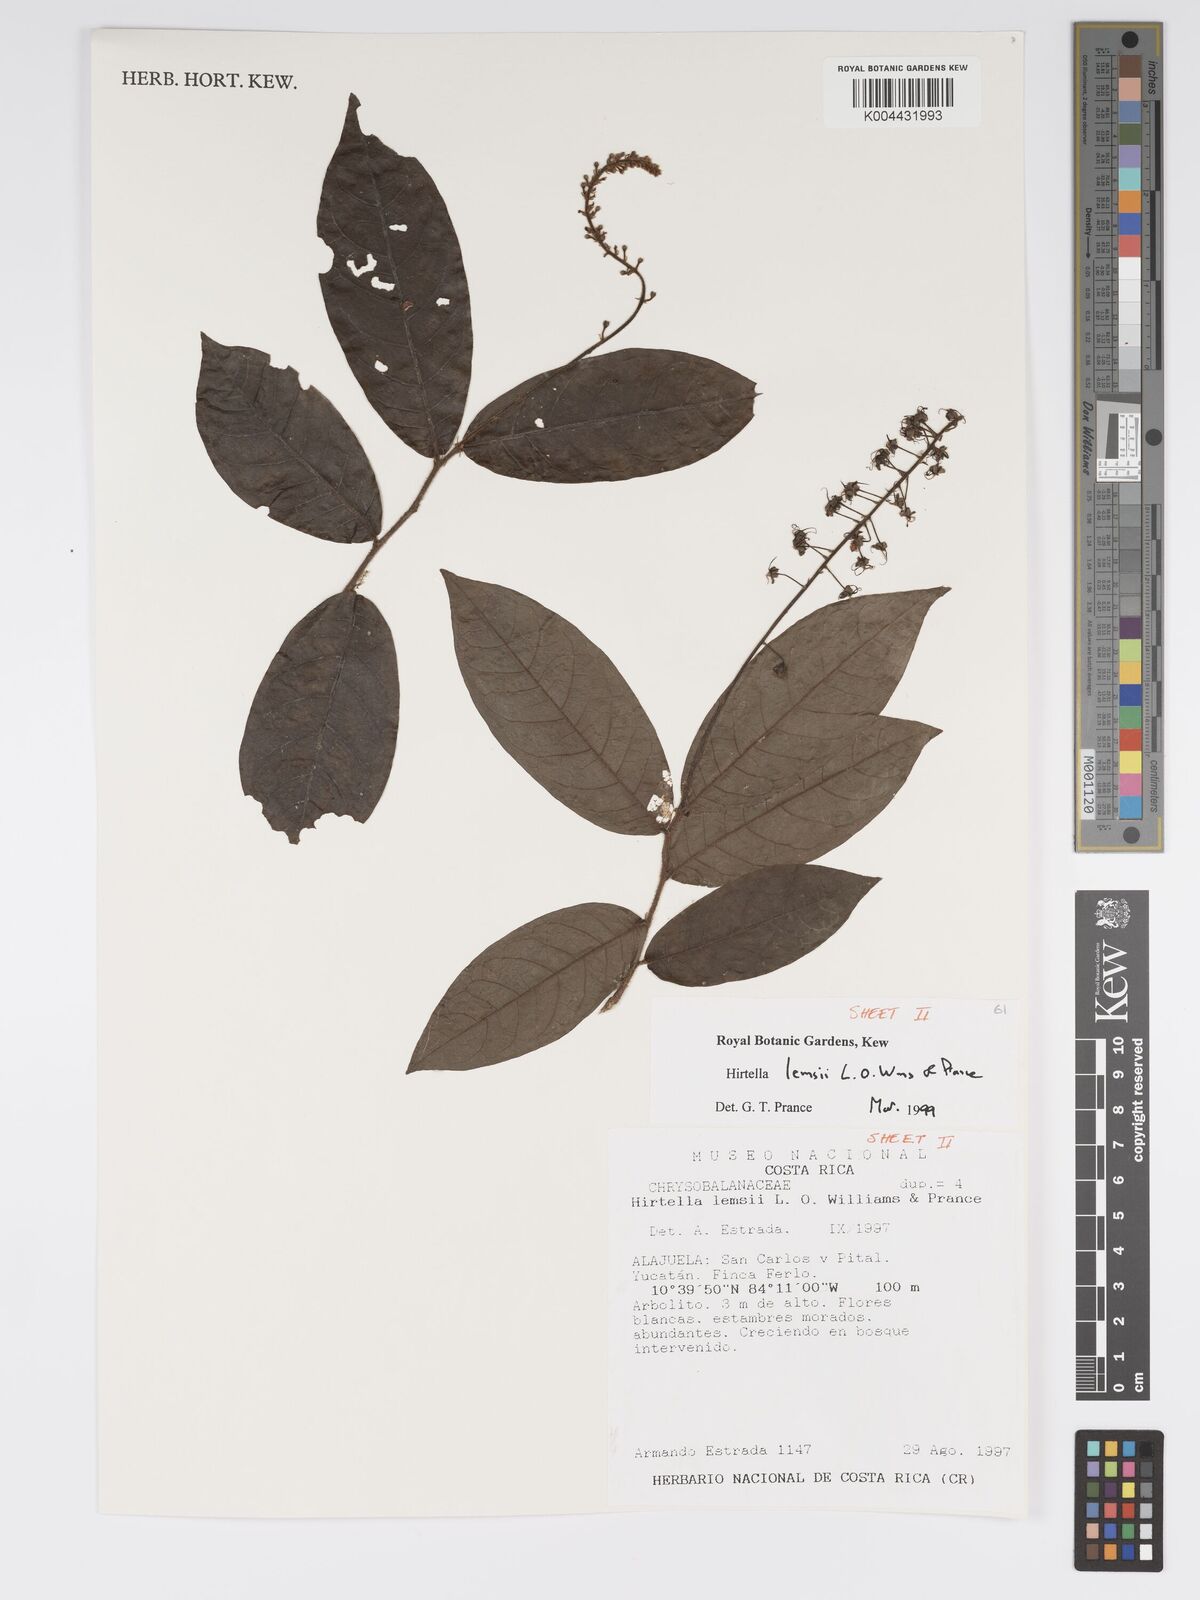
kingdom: Plantae
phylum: Tracheophyta
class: Magnoliopsida
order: Malpighiales
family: Chrysobalanaceae
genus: Hirtella
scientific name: Hirtella lemsii
